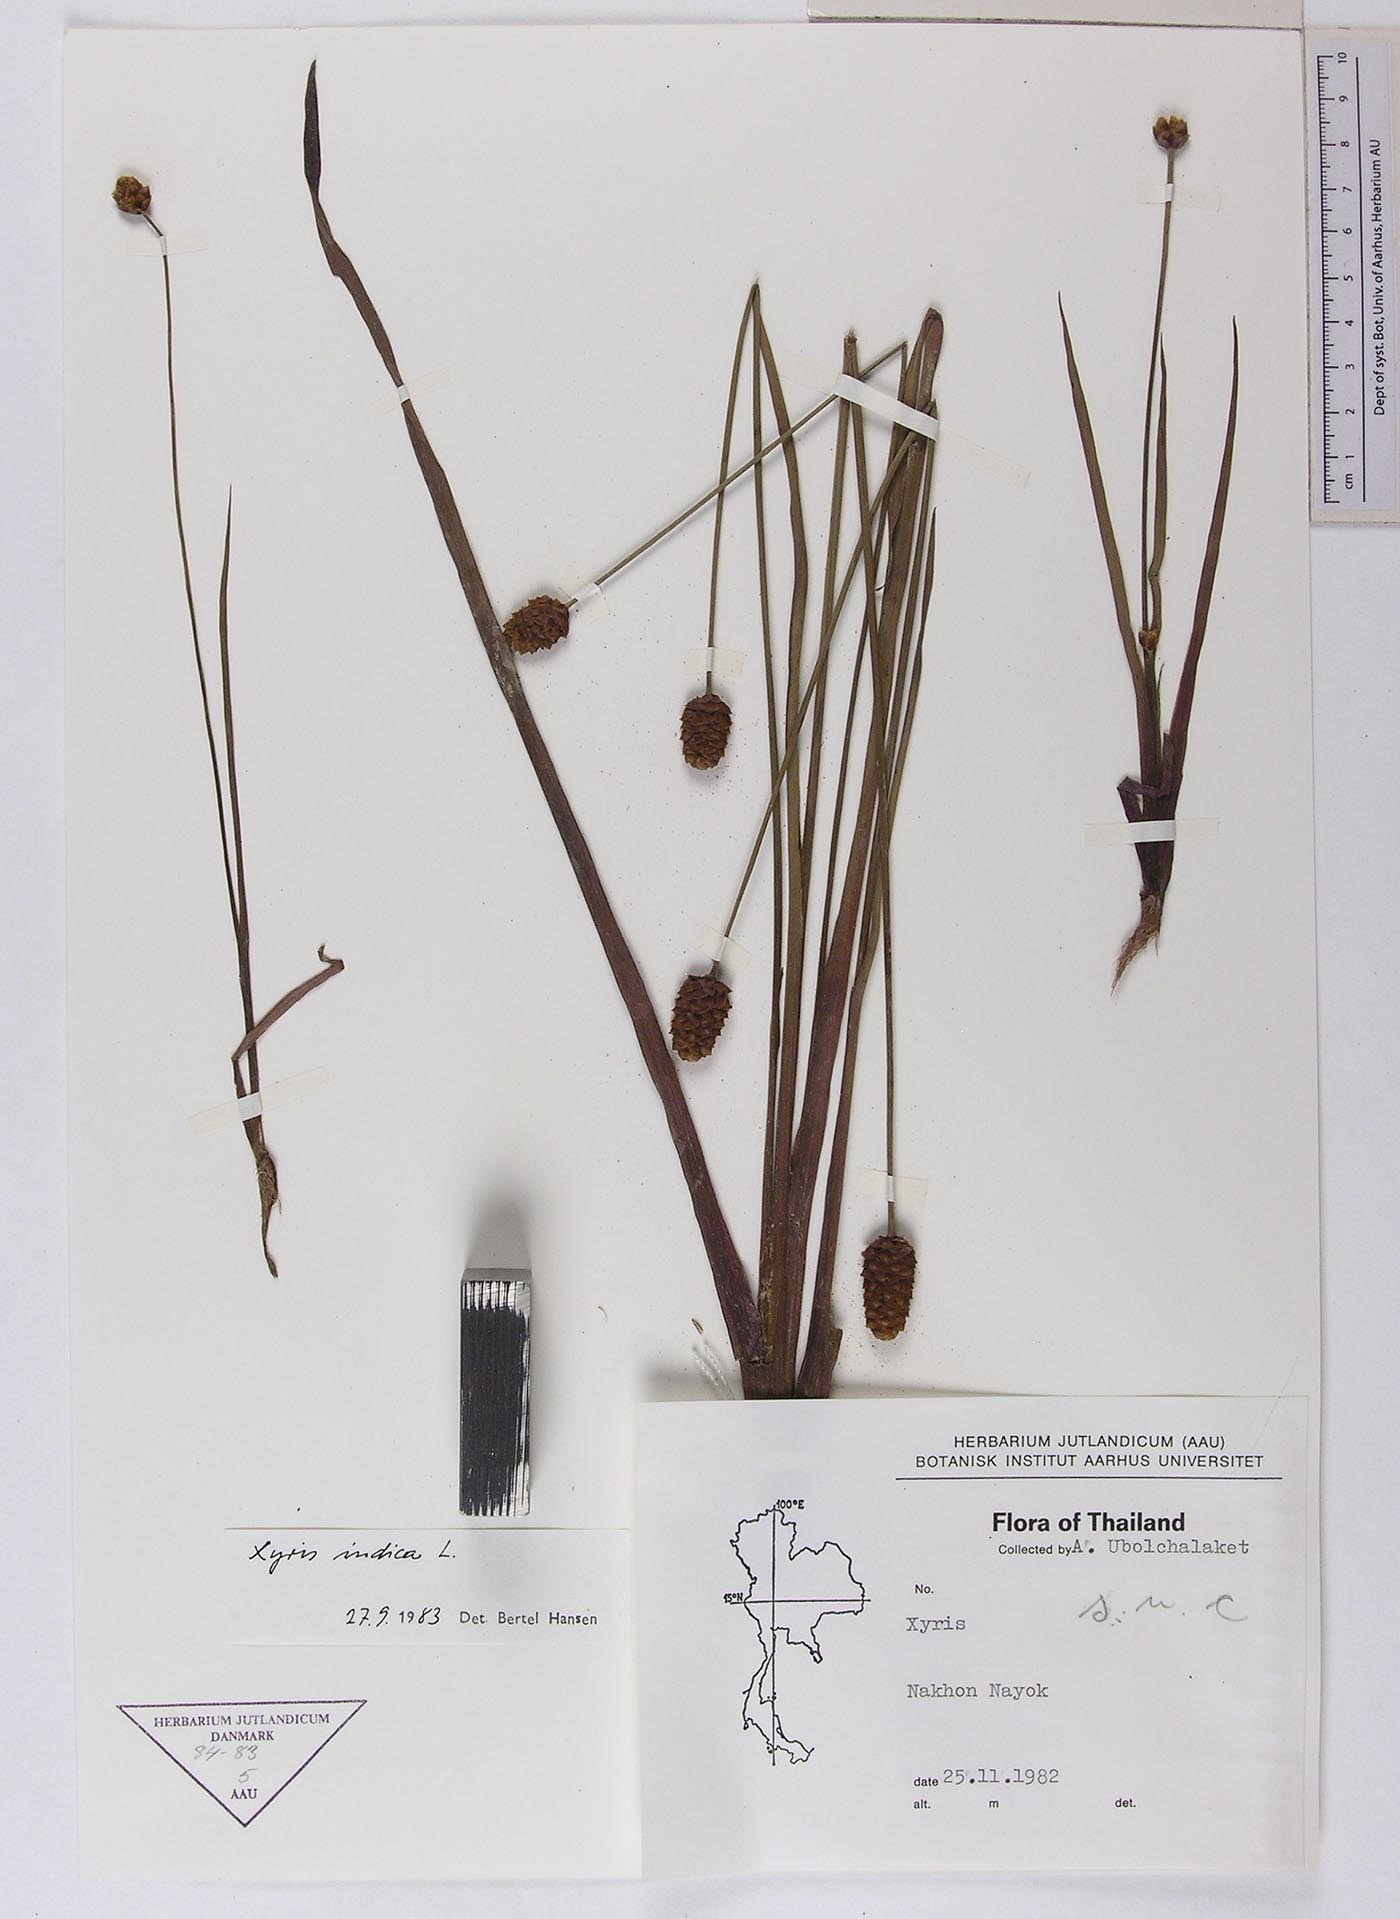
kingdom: Plantae
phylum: Tracheophyta
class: Liliopsida
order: Poales
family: Xyridaceae
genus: Xyris
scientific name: Xyris indica
